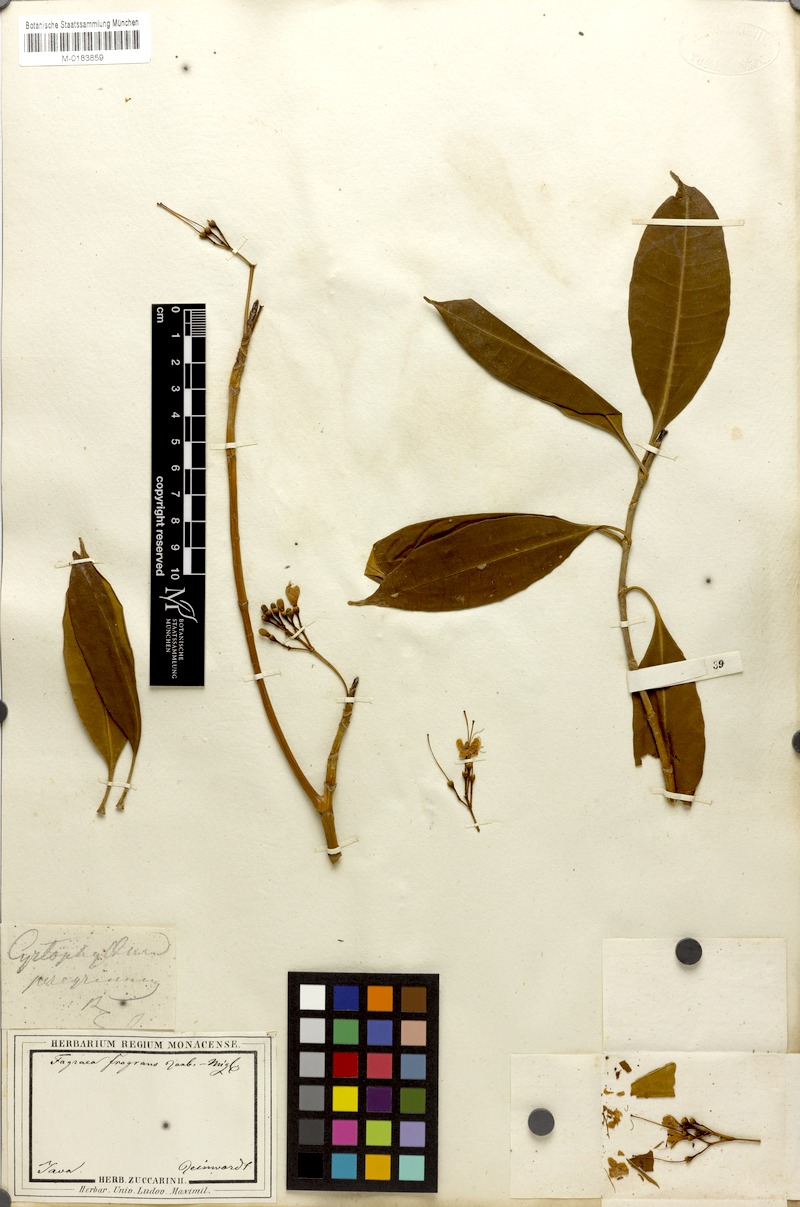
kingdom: Plantae
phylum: Tracheophyta
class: Magnoliopsida
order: Gentianales
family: Gentianaceae
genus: Cyrtophyllum
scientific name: Cyrtophyllum fragrans
